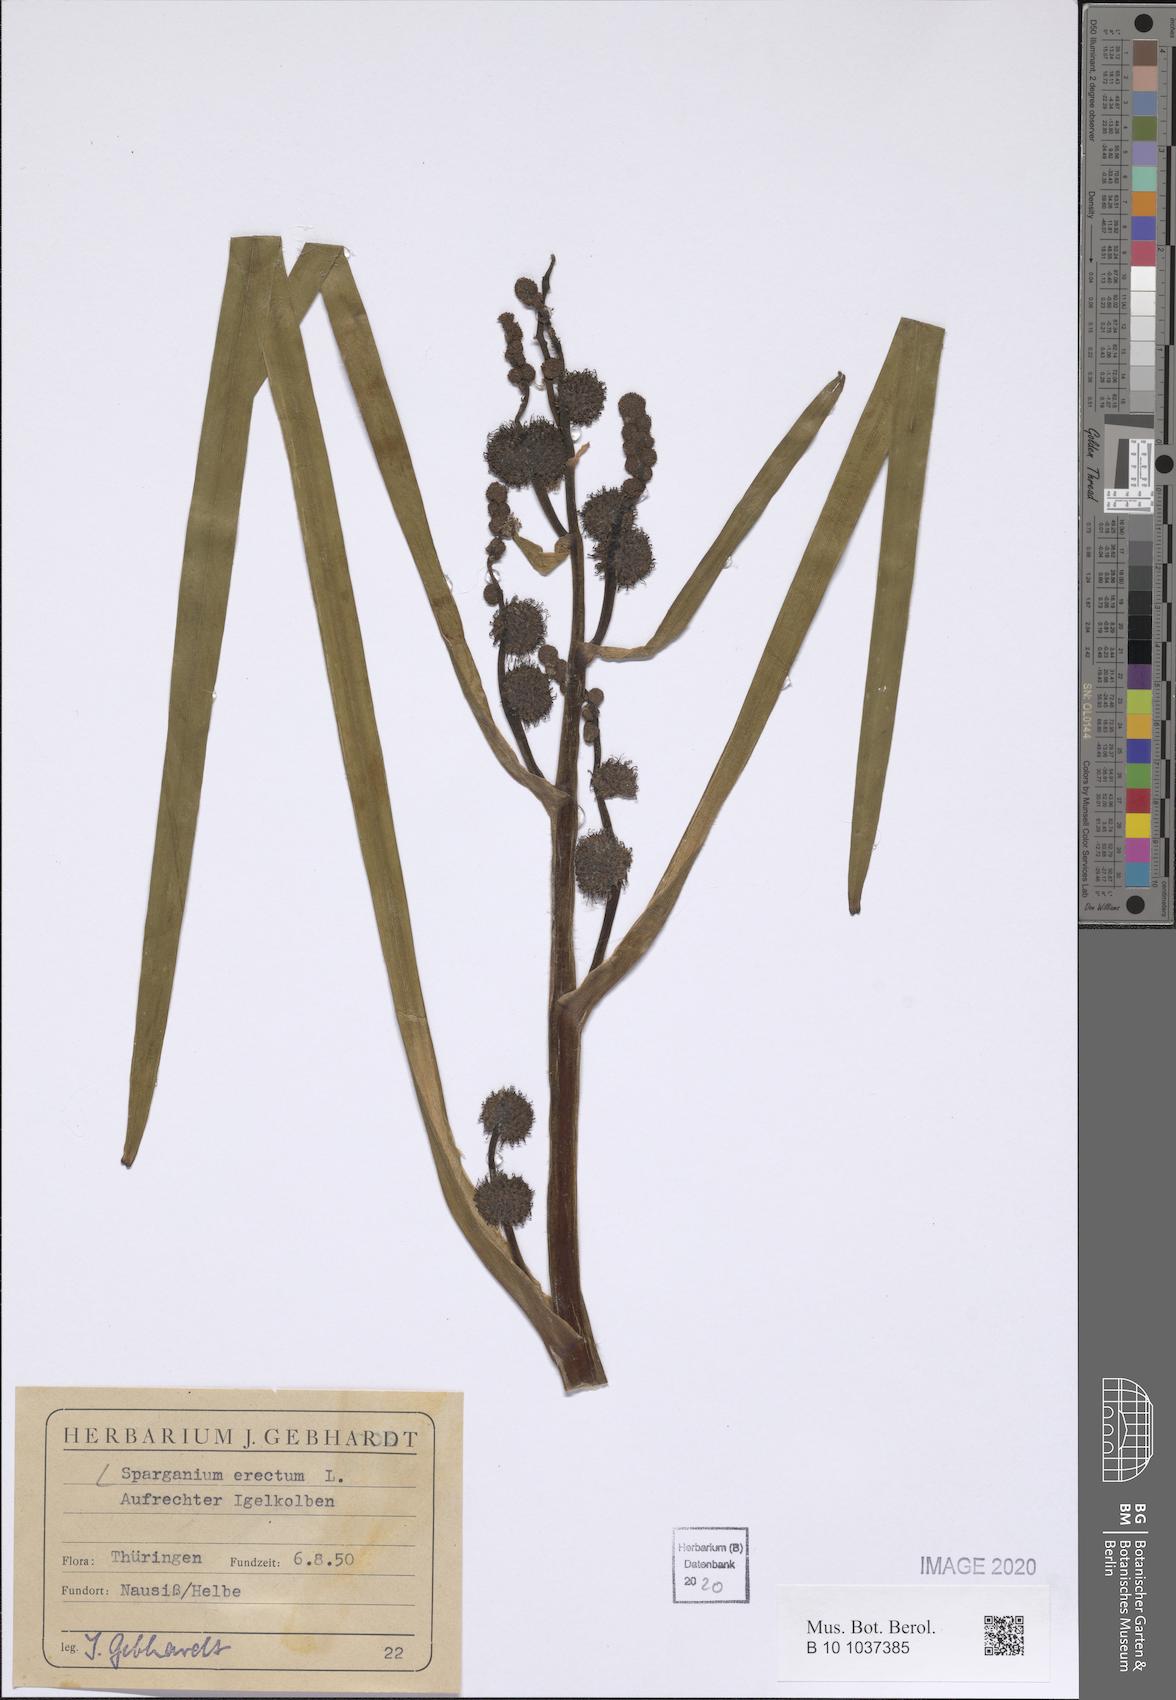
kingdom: Plantae
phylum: Tracheophyta
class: Liliopsida
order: Poales
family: Typhaceae
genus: Sparganium
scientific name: Sparganium erectum
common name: Branched bur-reed
